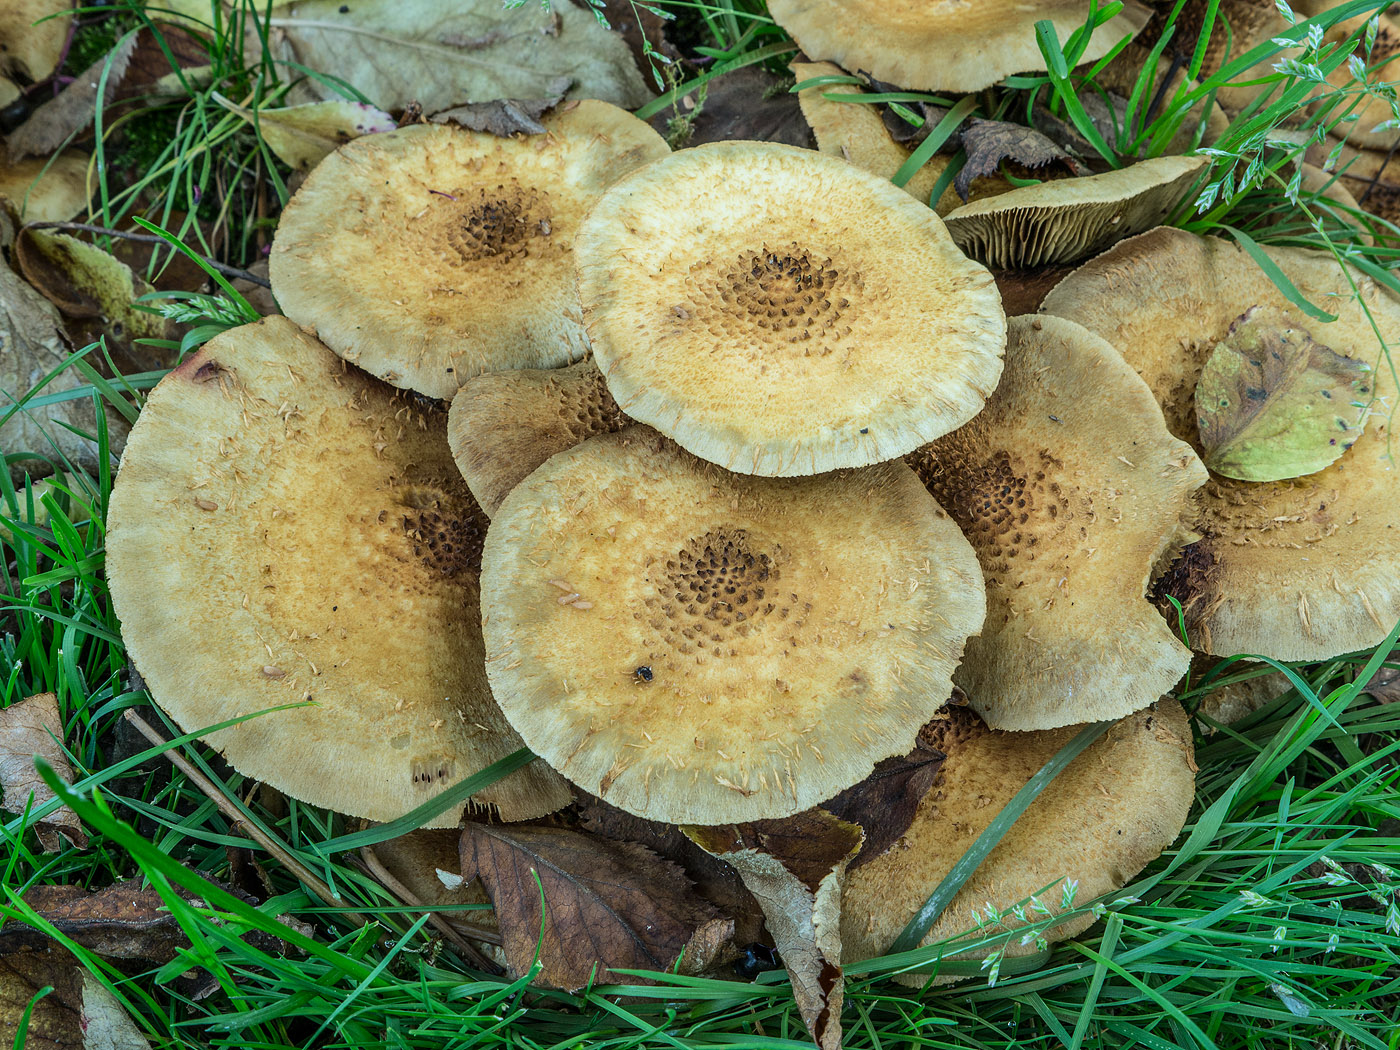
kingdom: Fungi
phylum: Basidiomycota
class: Agaricomycetes
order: Agaricales
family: Strophariaceae
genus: Pholiota
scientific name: Pholiota squarrosa
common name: krumskællet skælhat
